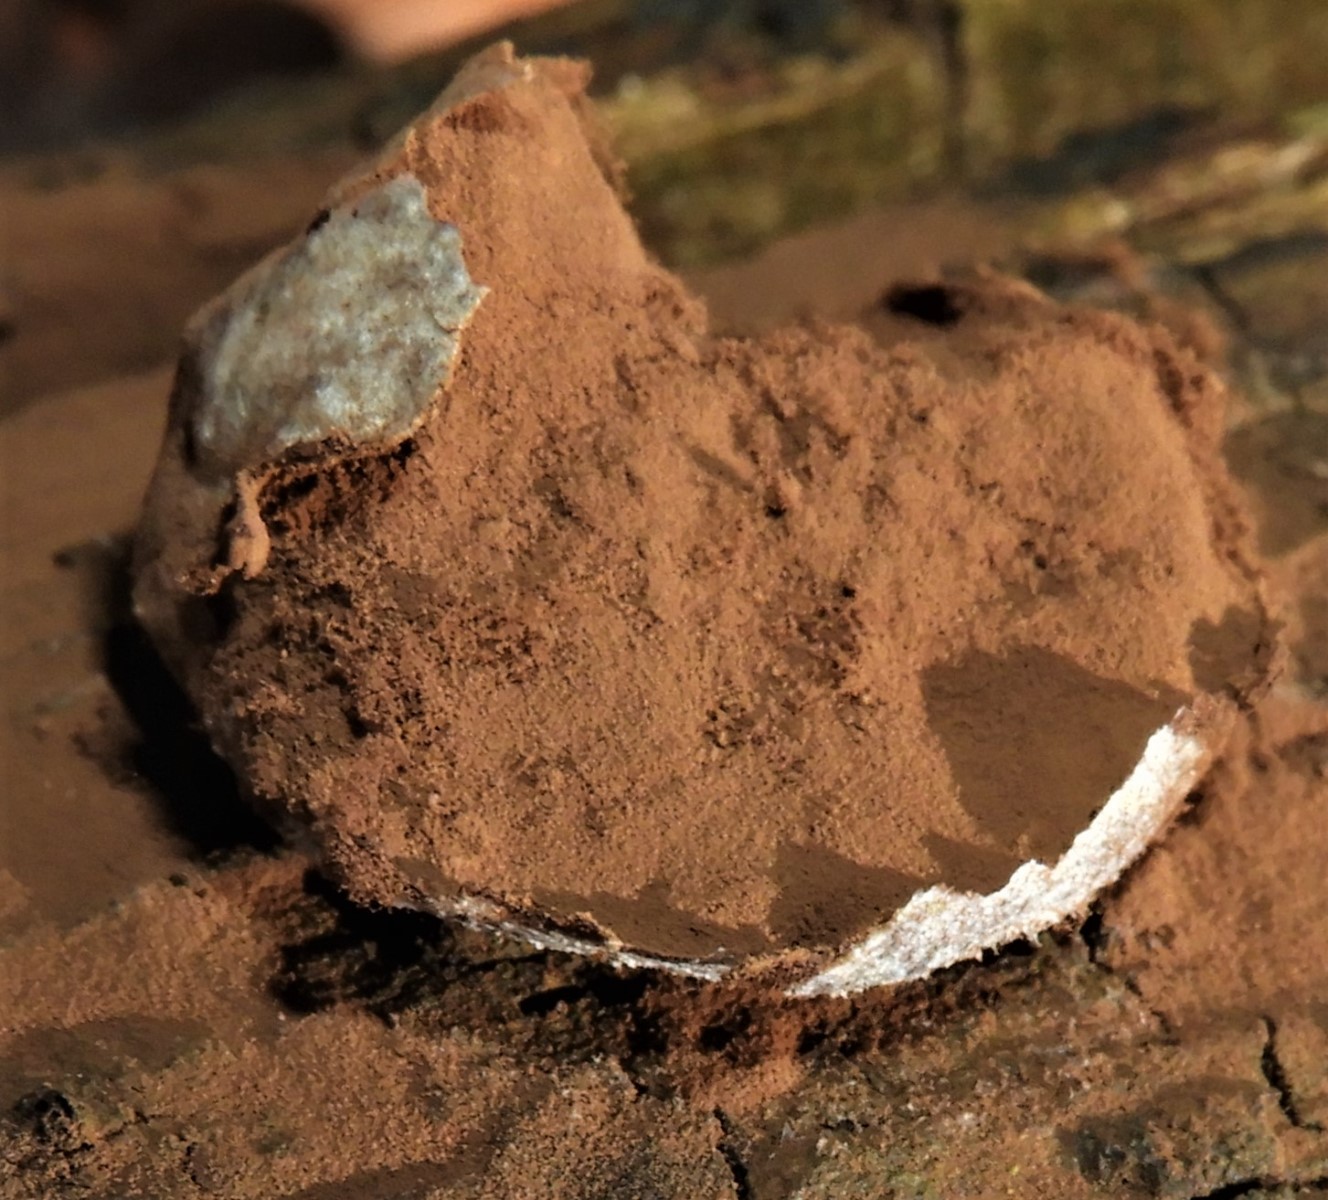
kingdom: Protozoa
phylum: Mycetozoa
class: Myxomycetes
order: Cribrariales
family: Tubiferaceae
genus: Reticularia
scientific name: Reticularia lycoperdon
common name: skinnende støvpude
